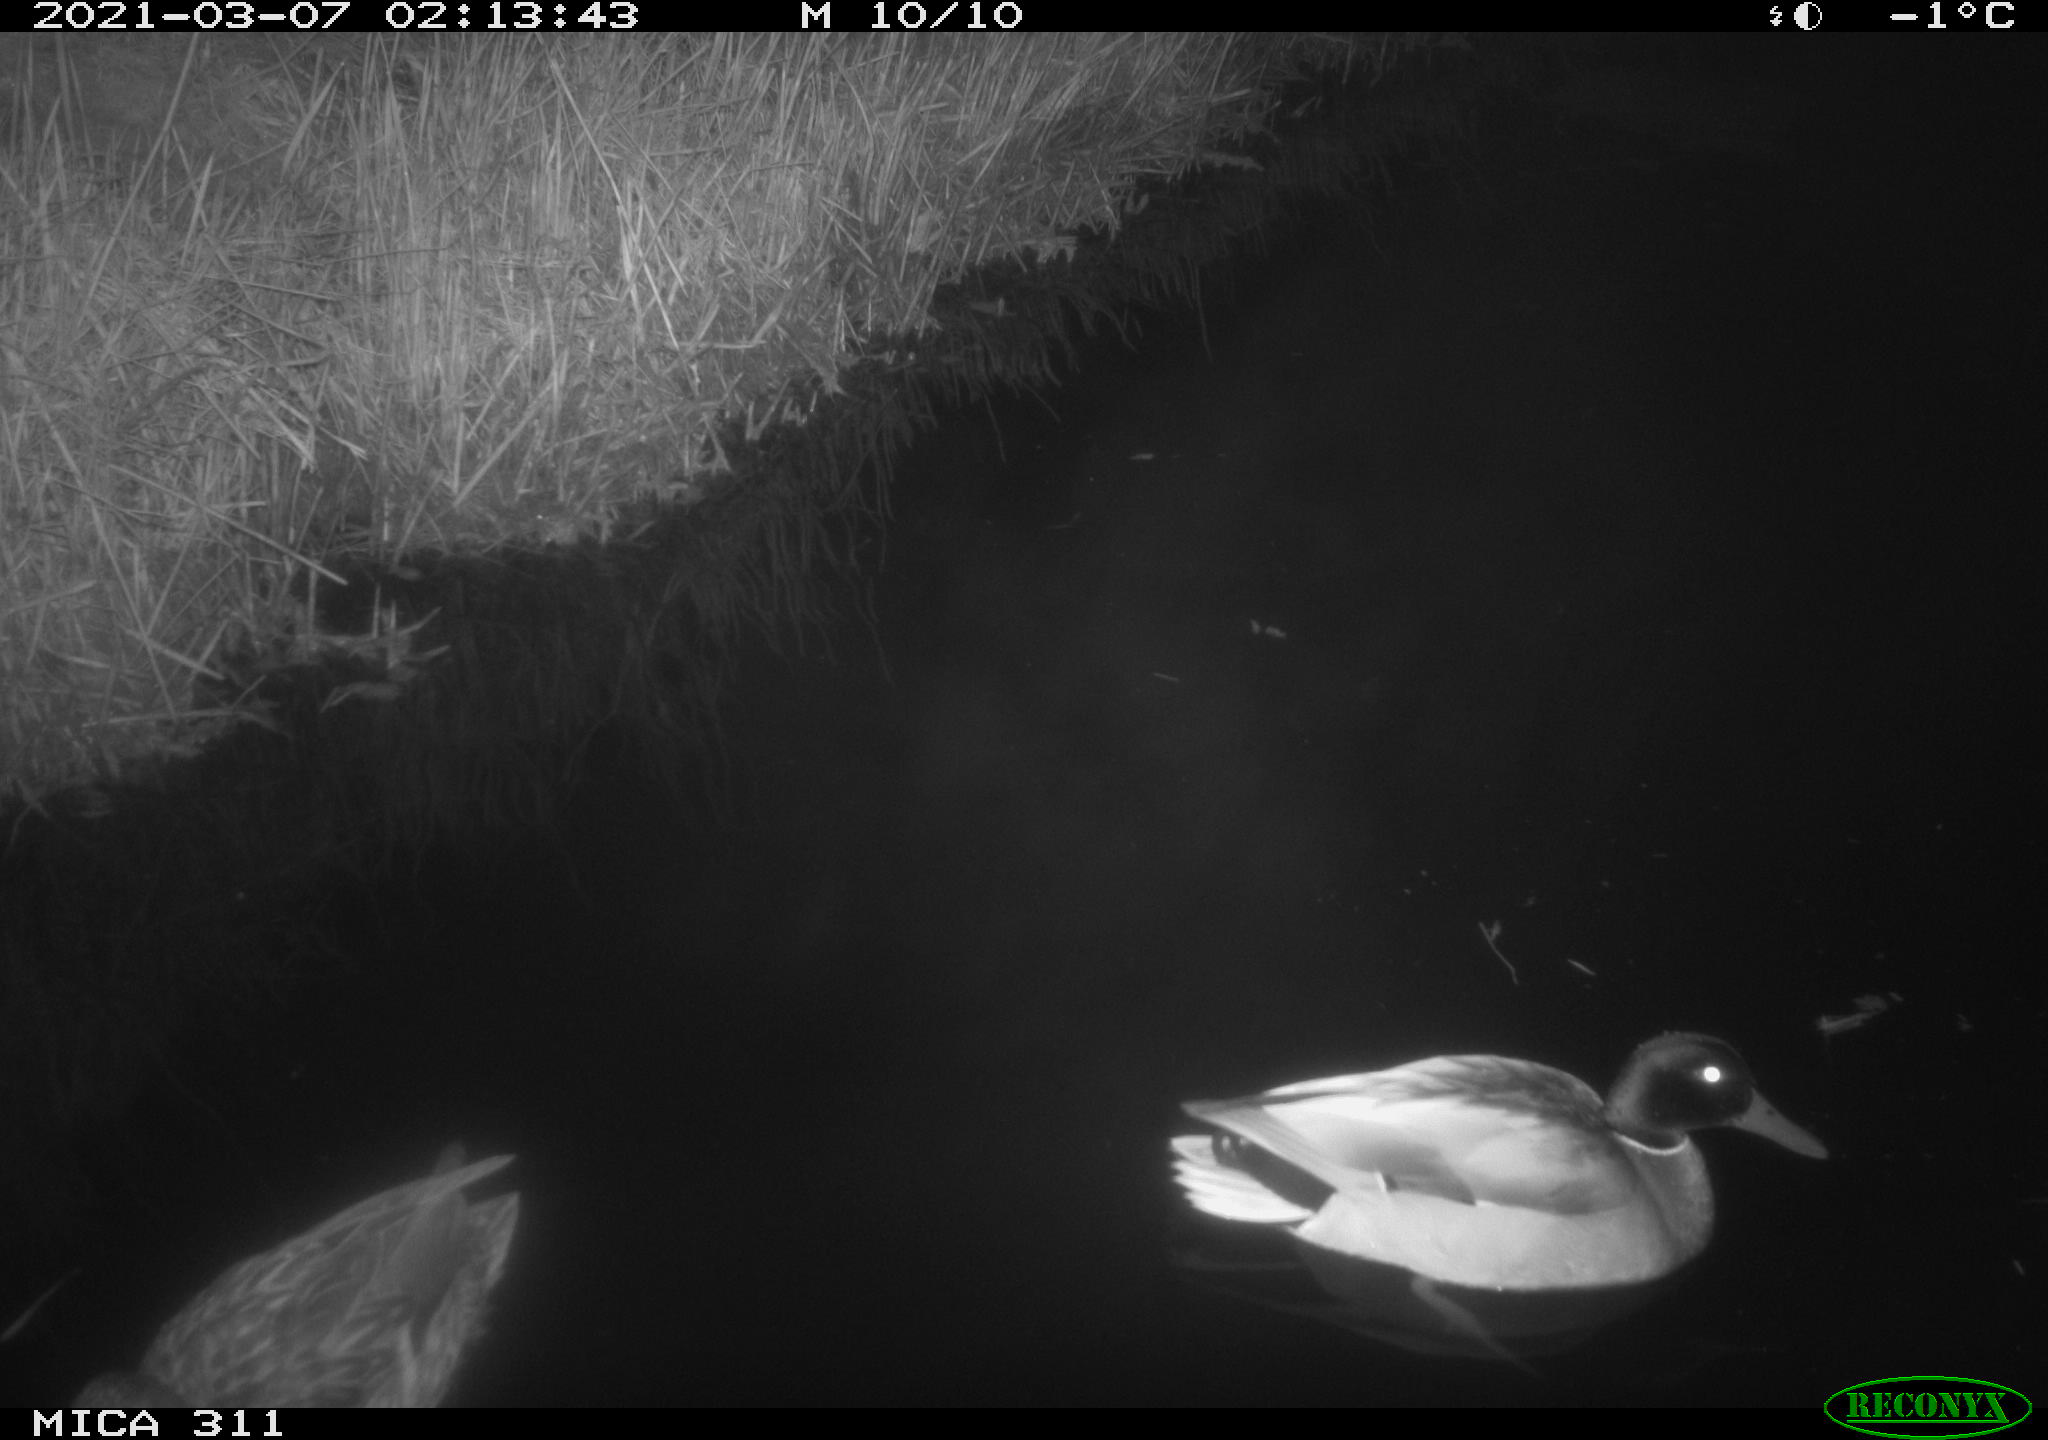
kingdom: Animalia
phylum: Chordata
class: Aves
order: Anseriformes
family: Anatidae
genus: Anas
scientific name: Anas
